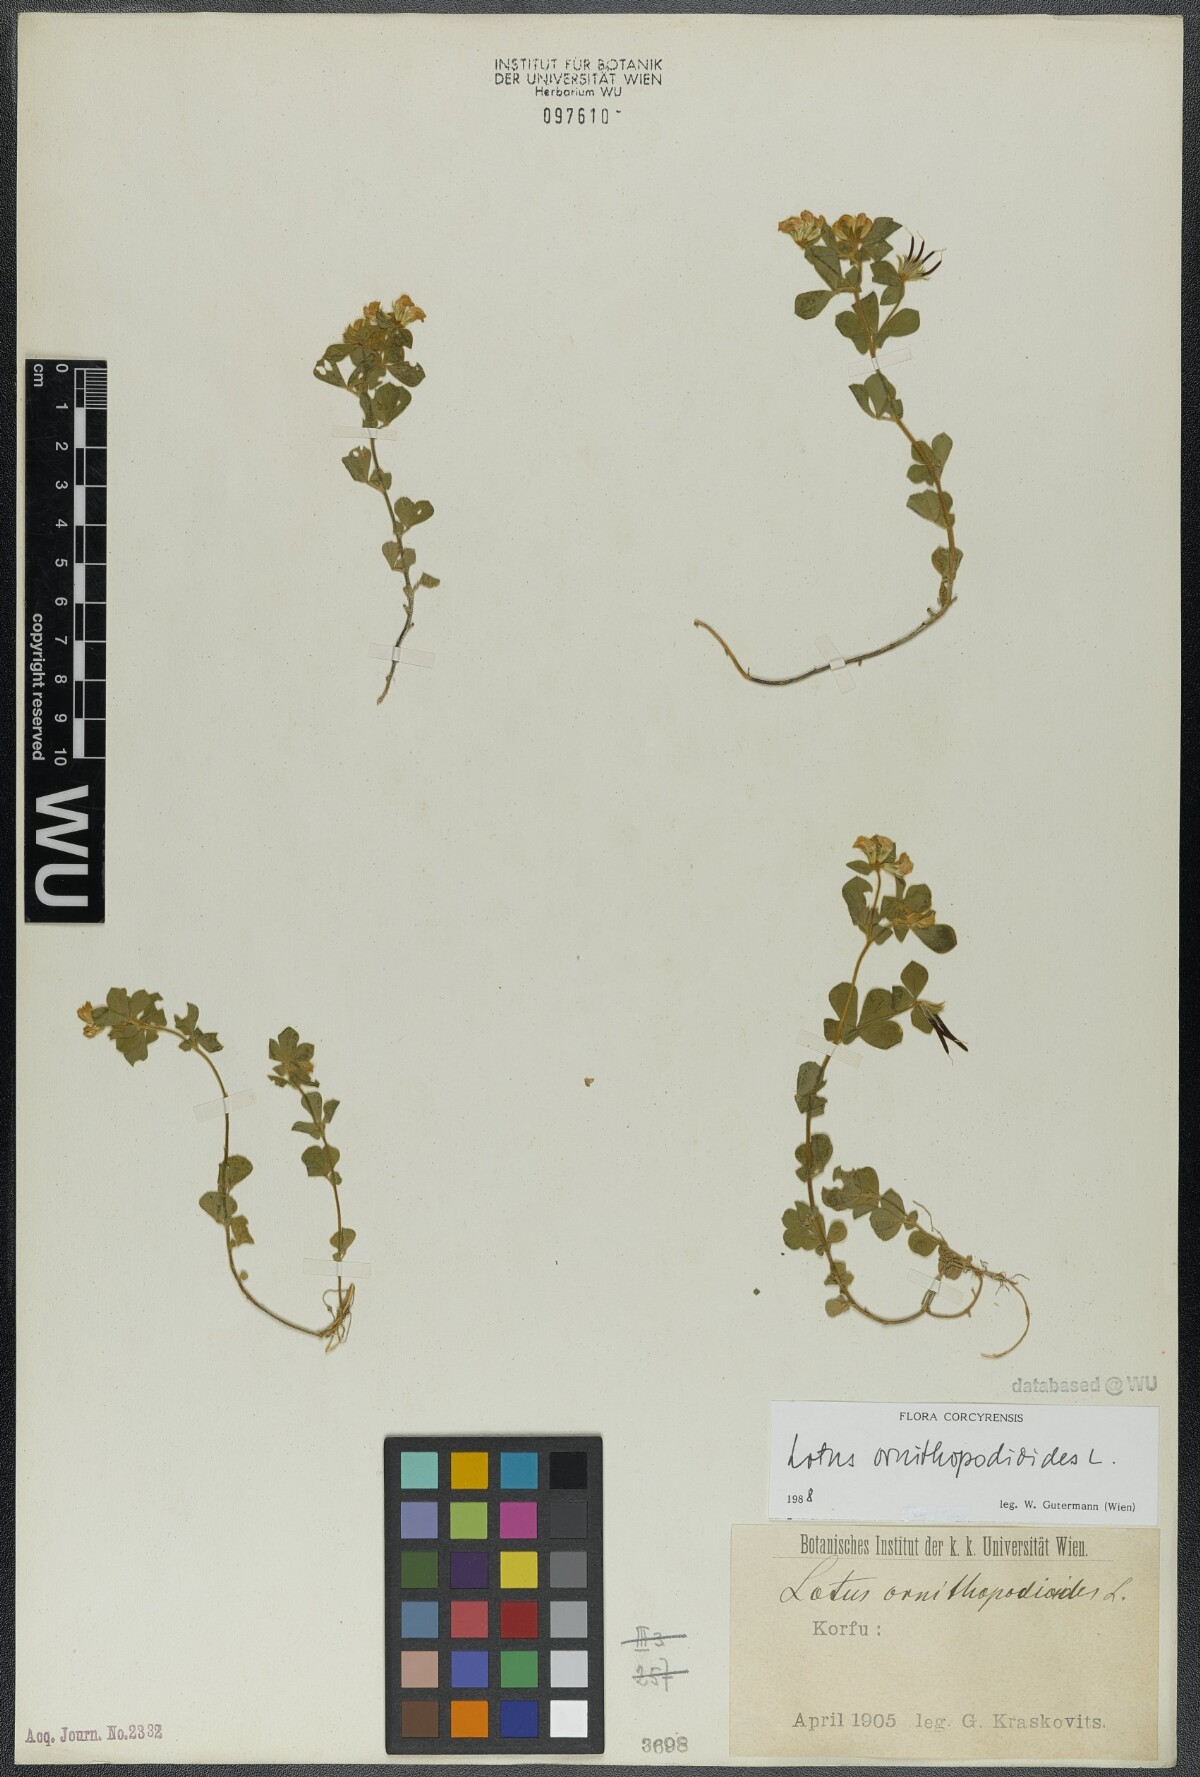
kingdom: Plantae
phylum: Tracheophyta
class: Magnoliopsida
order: Fabales
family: Fabaceae
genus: Lotus
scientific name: Lotus ornithopodioides
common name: Southern bird's-foot trefoil
